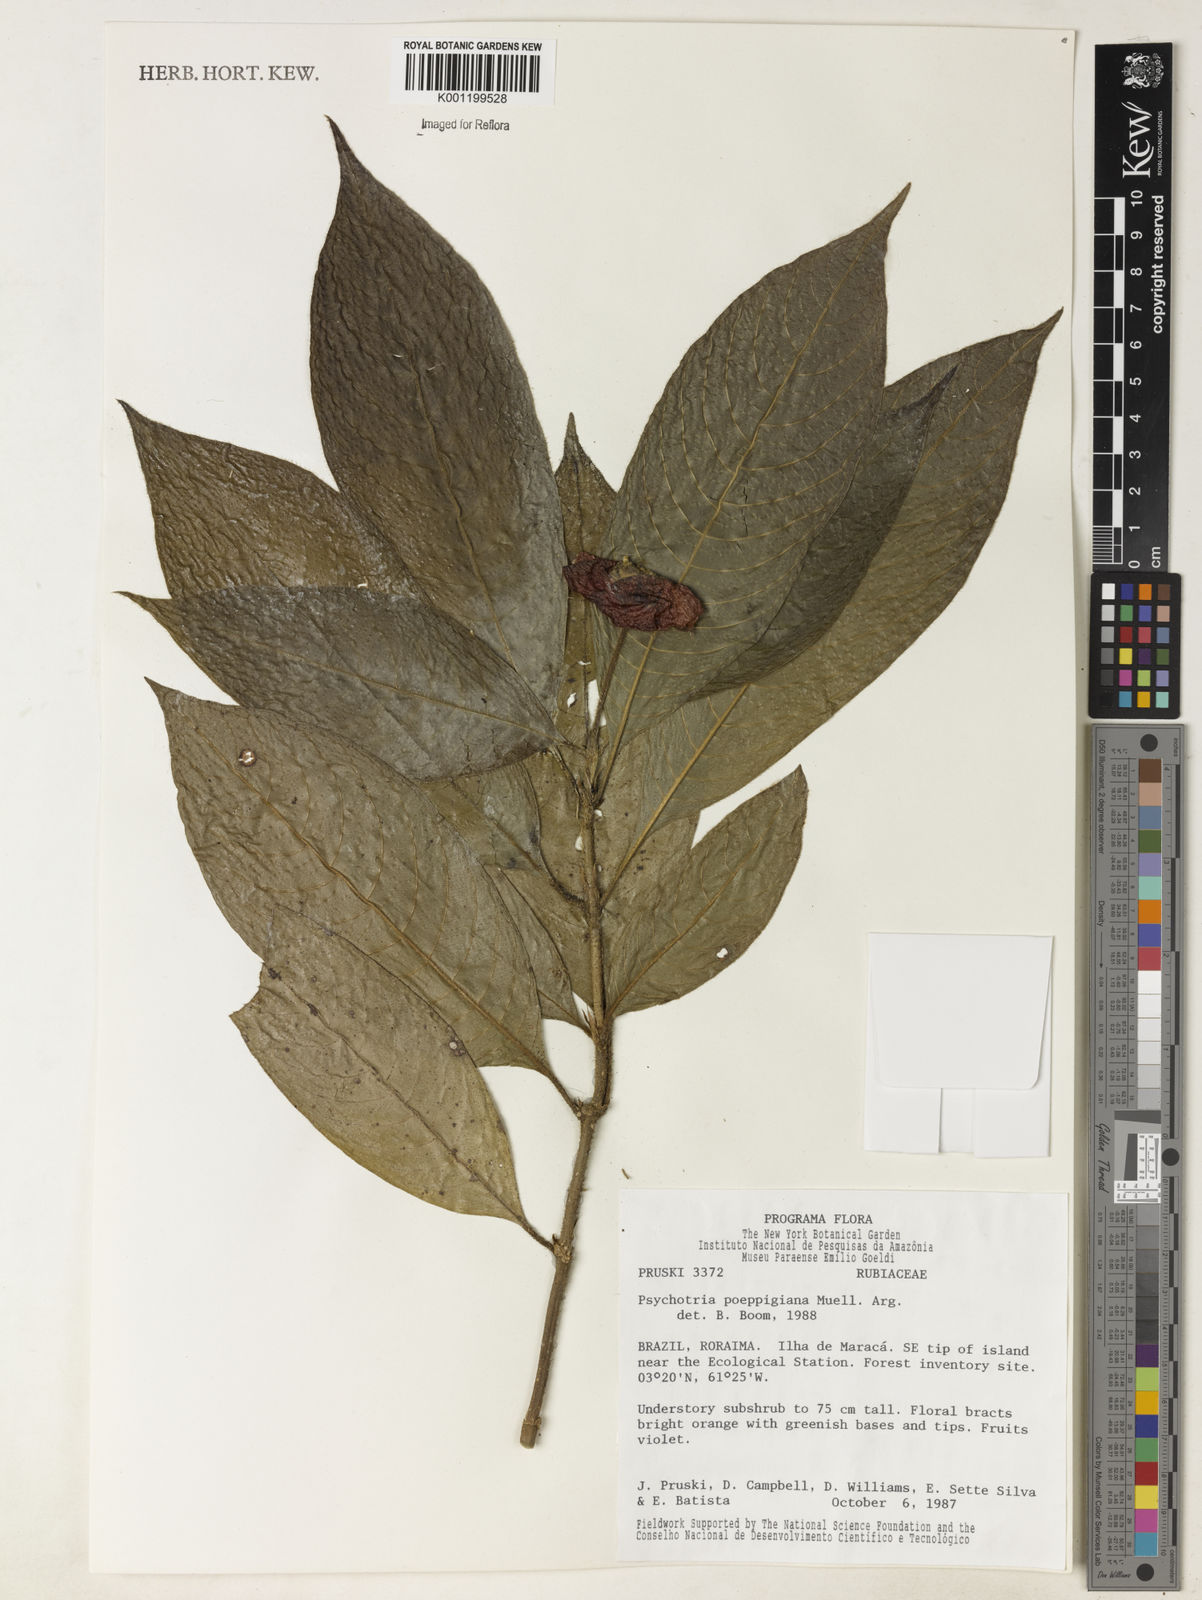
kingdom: Plantae
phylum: Tracheophyta
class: Magnoliopsida
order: Gentianales
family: Rubiaceae
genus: Psychotria
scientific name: Psychotria
